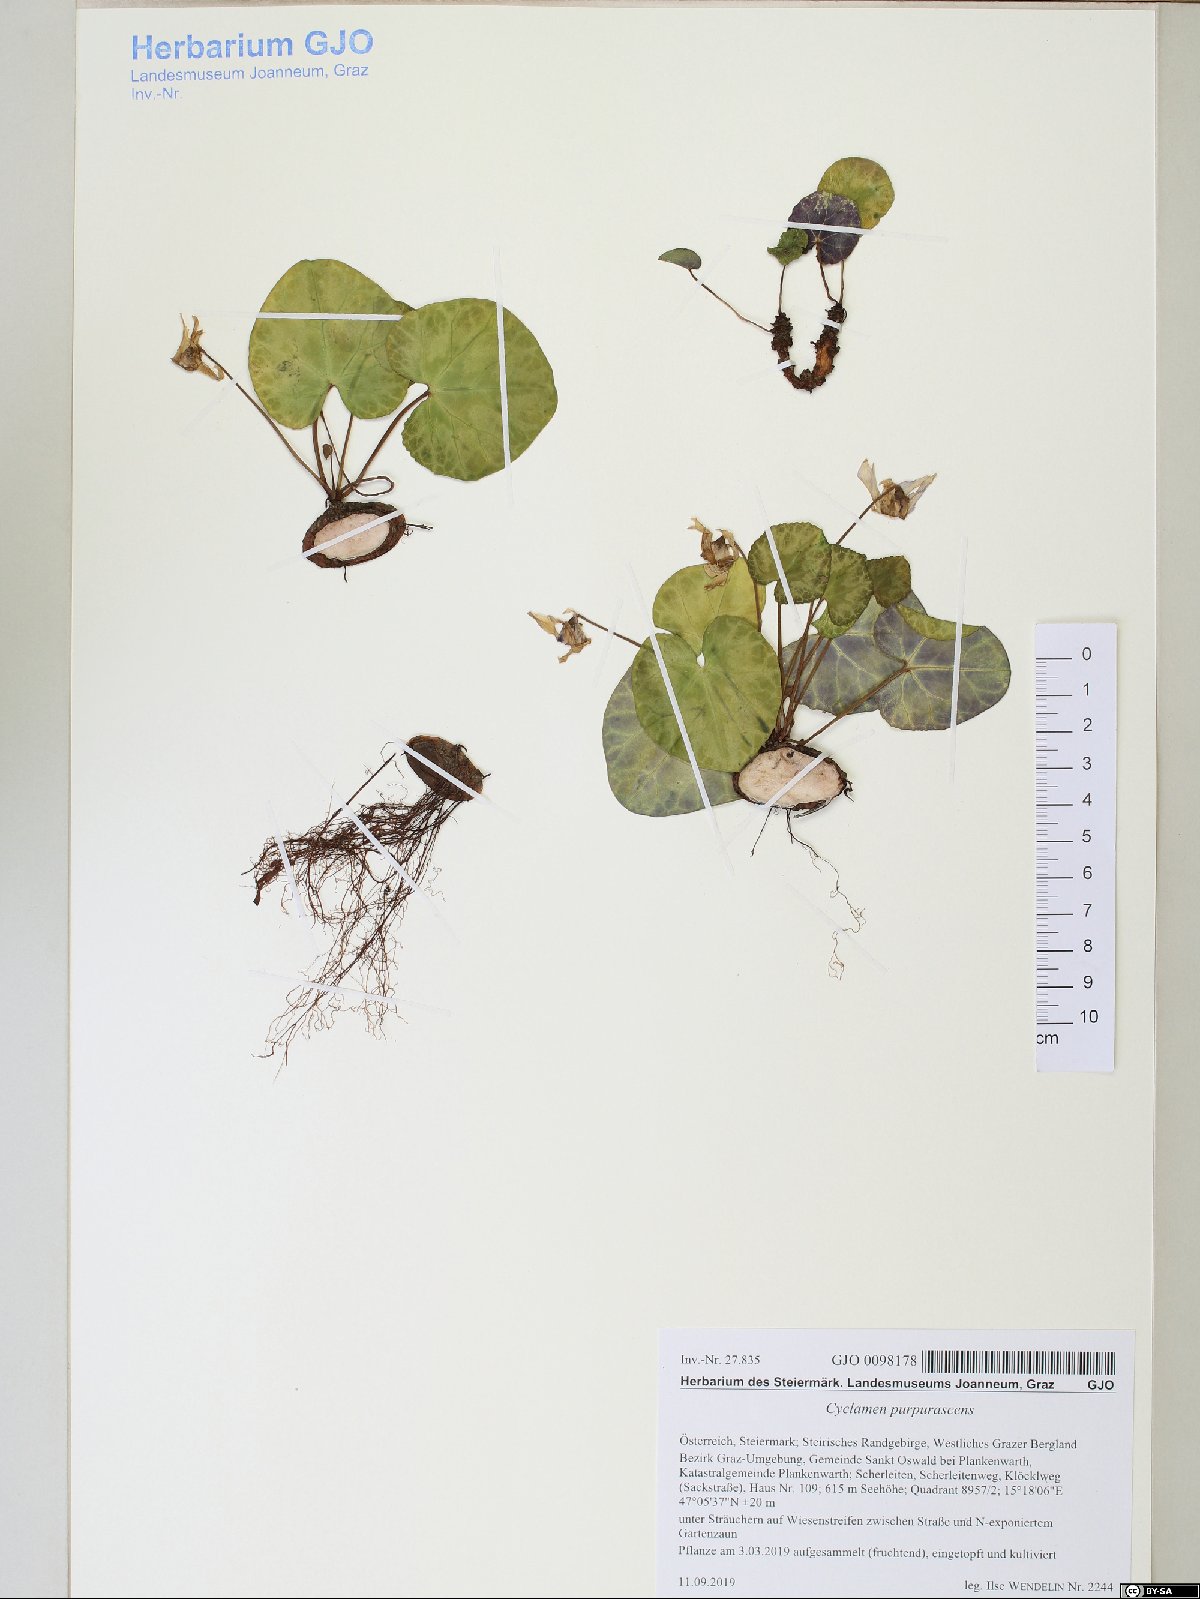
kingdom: Plantae
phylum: Tracheophyta
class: Magnoliopsida
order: Ericales
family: Primulaceae
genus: Cyclamen
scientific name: Cyclamen purpurascens
